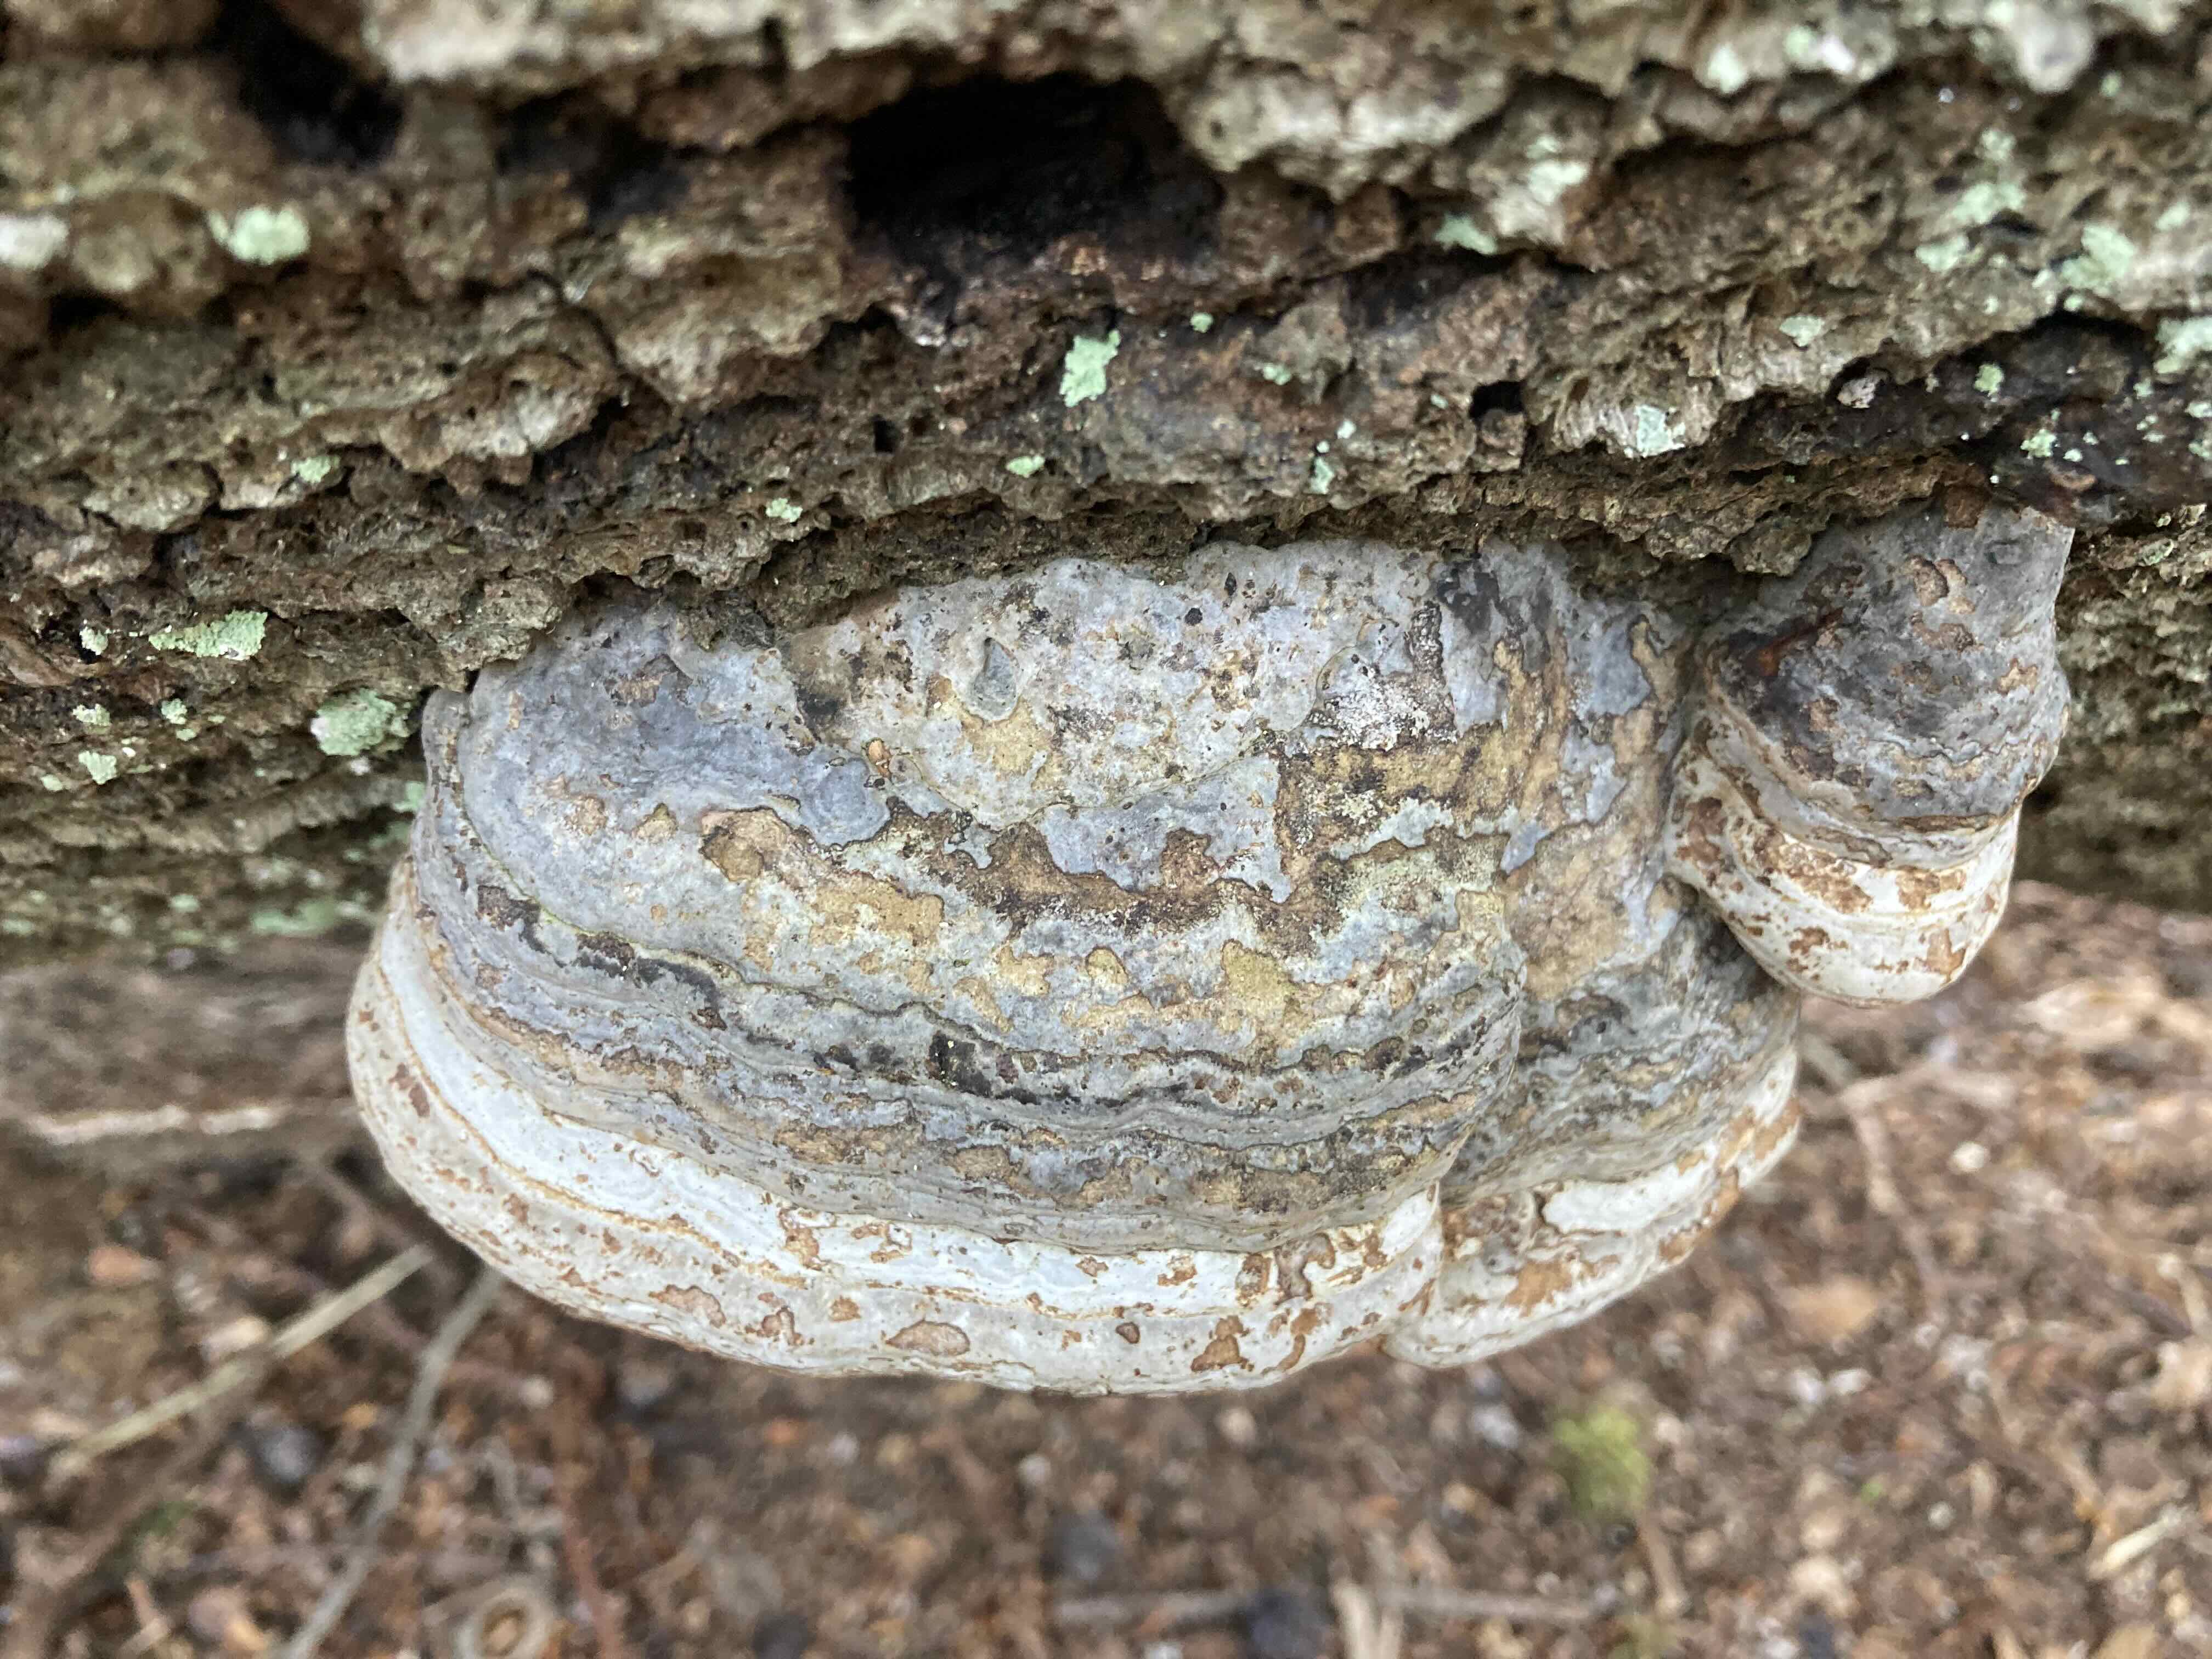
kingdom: Fungi
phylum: Basidiomycota
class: Agaricomycetes
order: Polyporales
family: Polyporaceae
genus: Fomes
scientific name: Fomes fomentarius
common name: tøndersvamp
